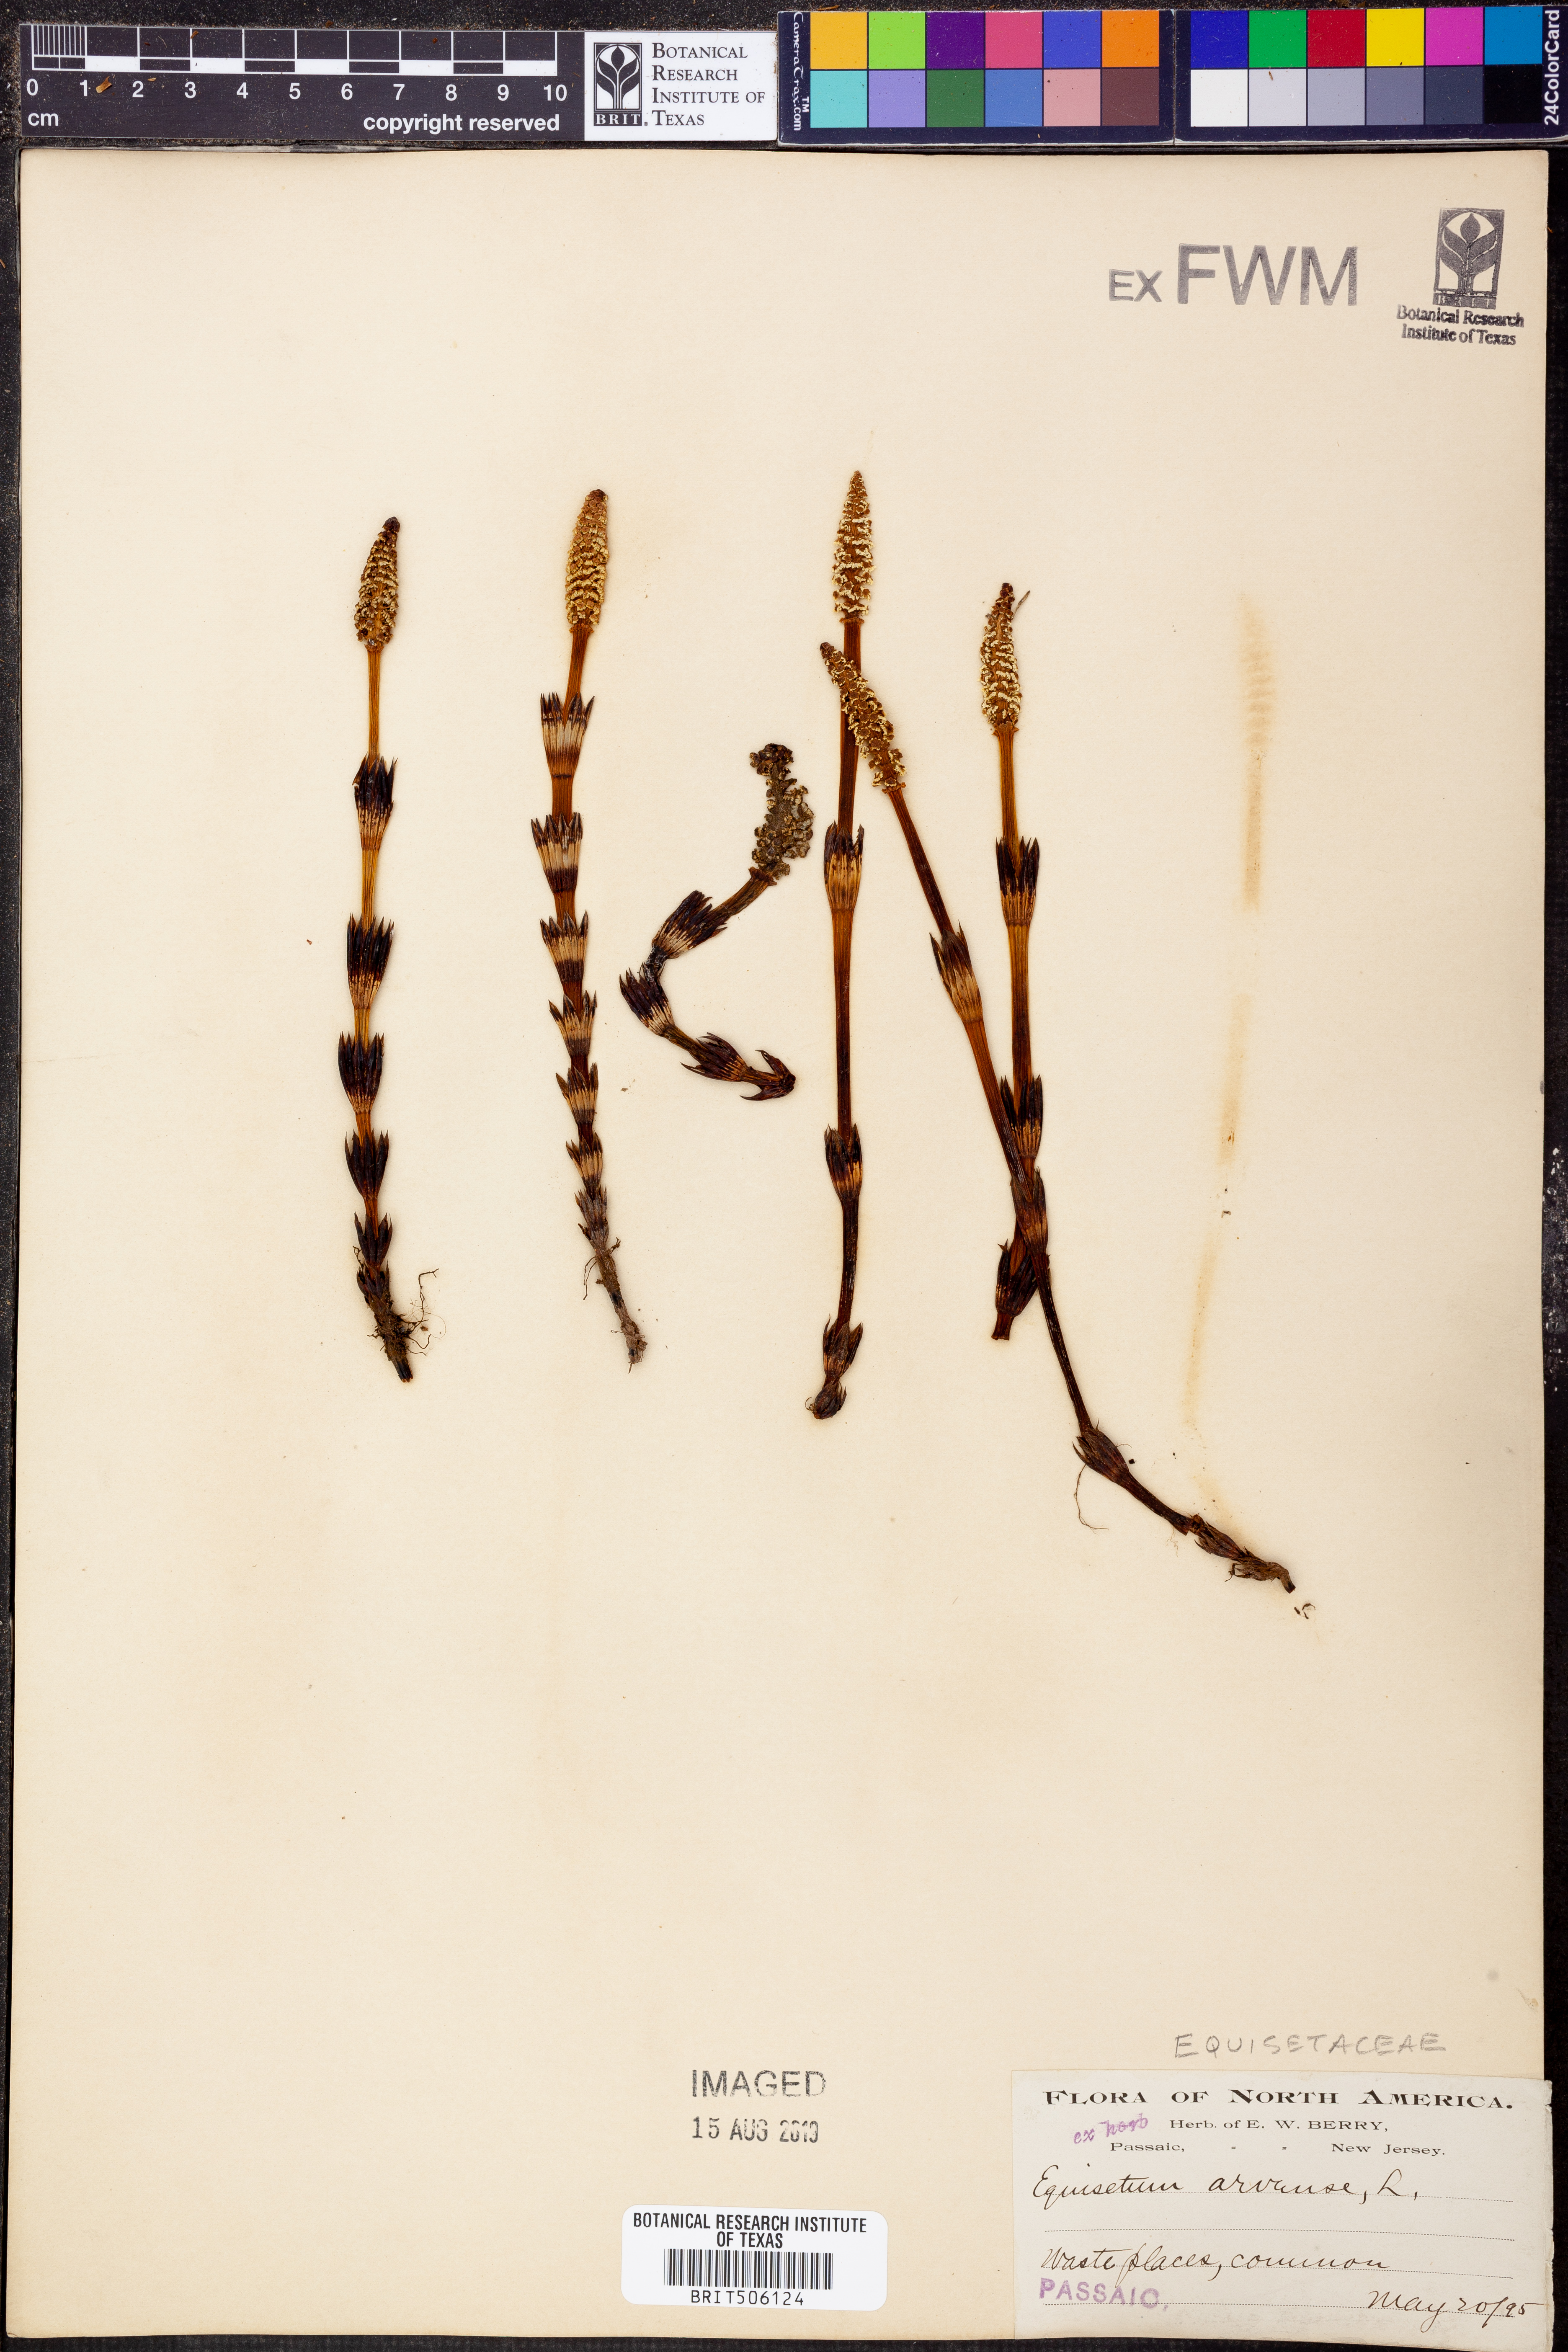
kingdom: Plantae
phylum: Tracheophyta
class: Polypodiopsida
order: Equisetales
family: Equisetaceae
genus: Equisetum
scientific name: Equisetum arvense
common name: Field horsetail
